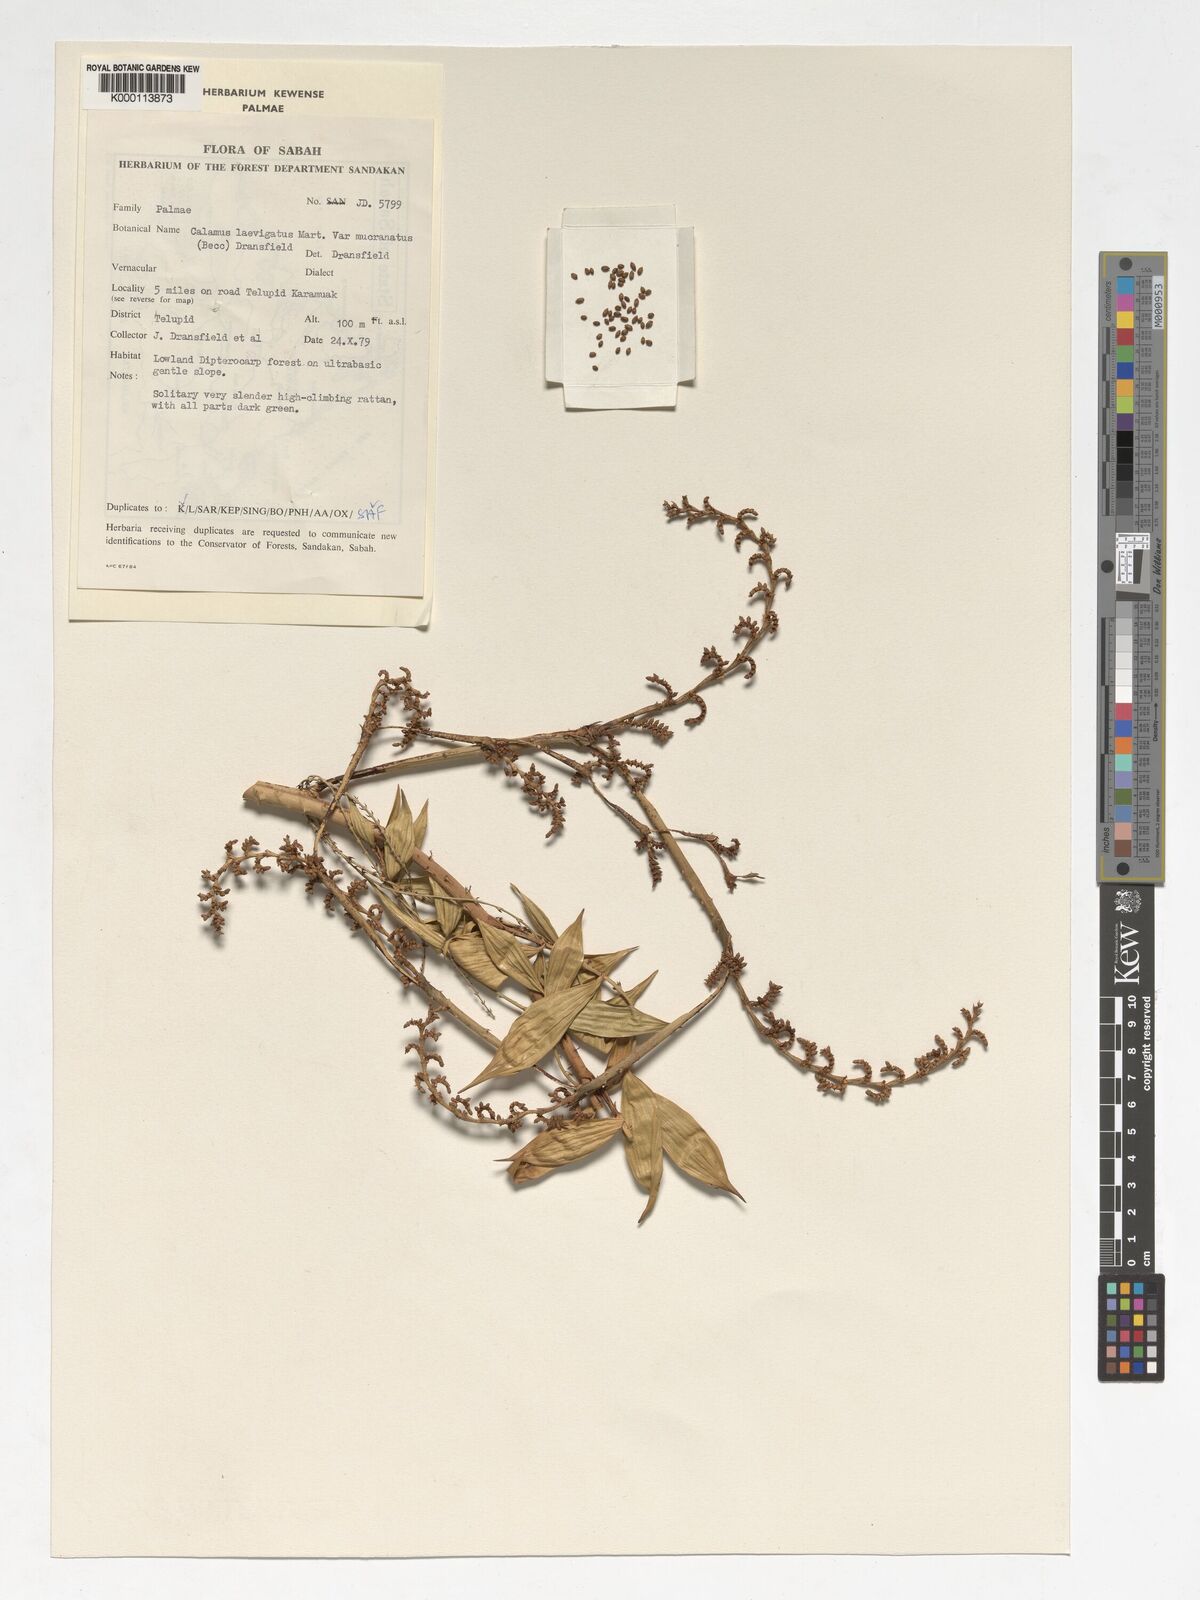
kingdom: Plantae
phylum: Tracheophyta
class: Liliopsida
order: Arecales
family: Arecaceae
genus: Calamus
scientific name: Calamus plicatus
